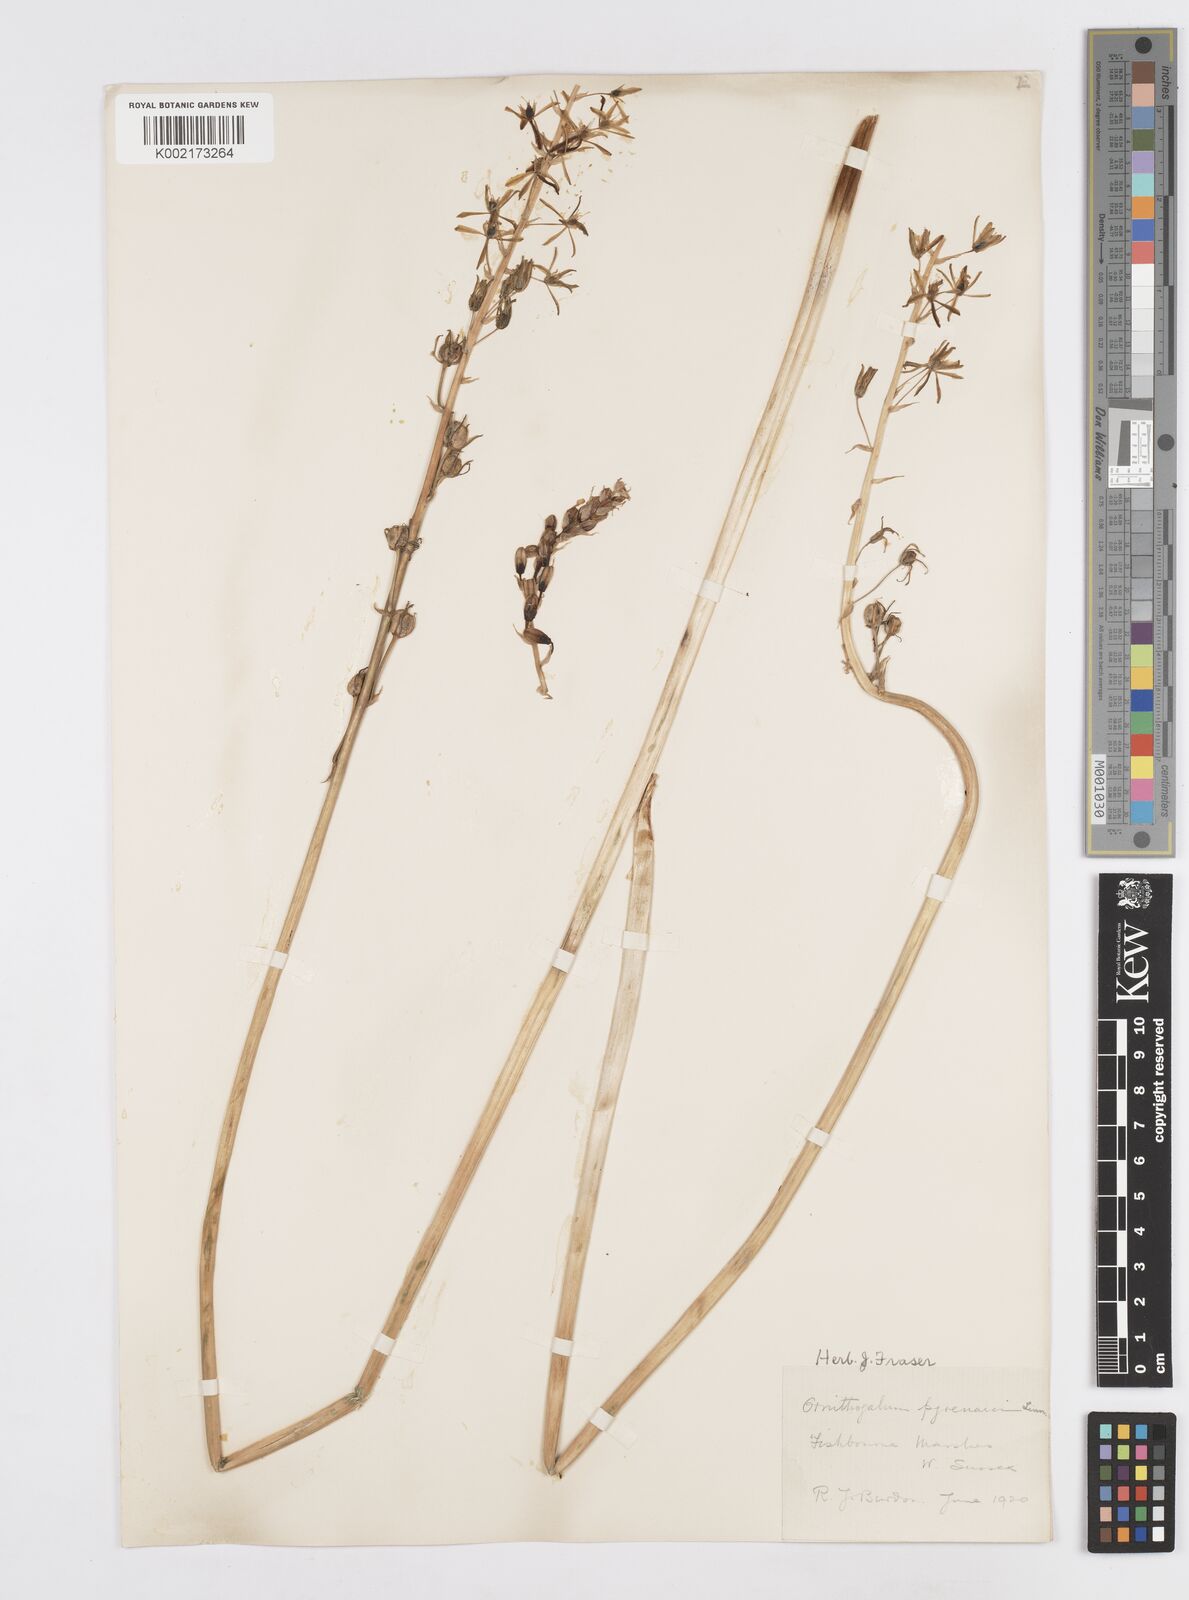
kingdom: Plantae
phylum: Tracheophyta
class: Liliopsida
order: Asparagales
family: Asparagaceae
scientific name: Asparagaceae
